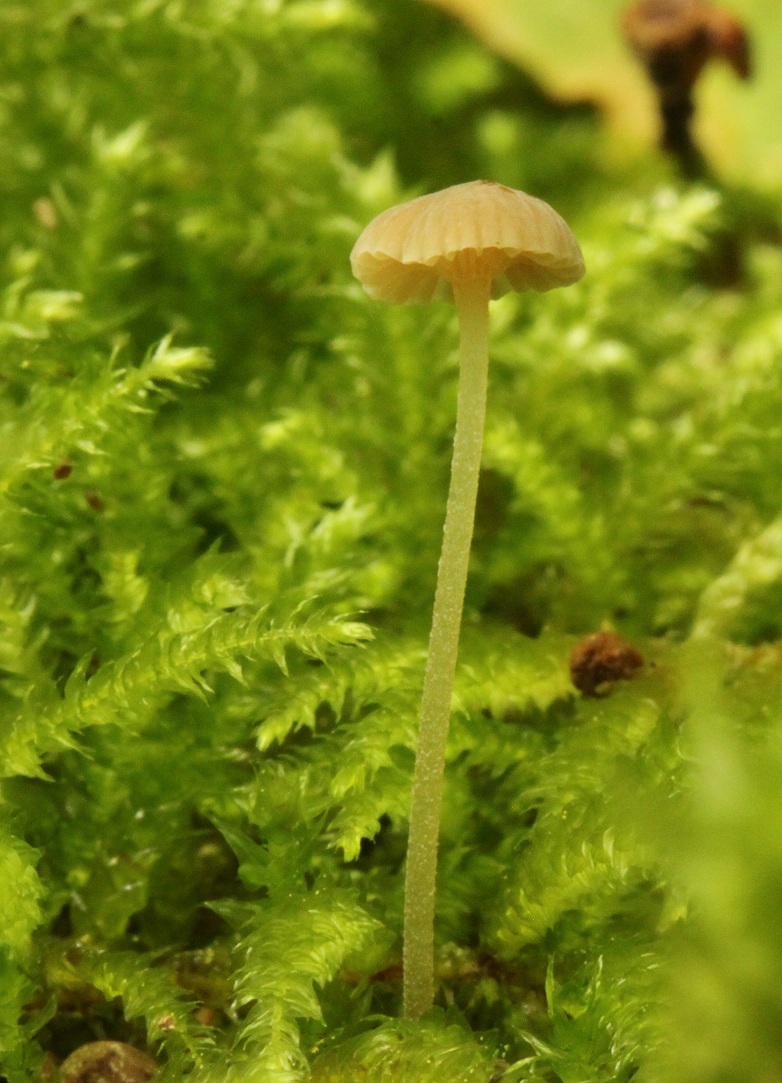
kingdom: Fungi
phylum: Basidiomycota
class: Agaricomycetes
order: Agaricales
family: Porotheleaceae
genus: Phloeomana
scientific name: Phloeomana clavata
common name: brunbladet huesvamp
